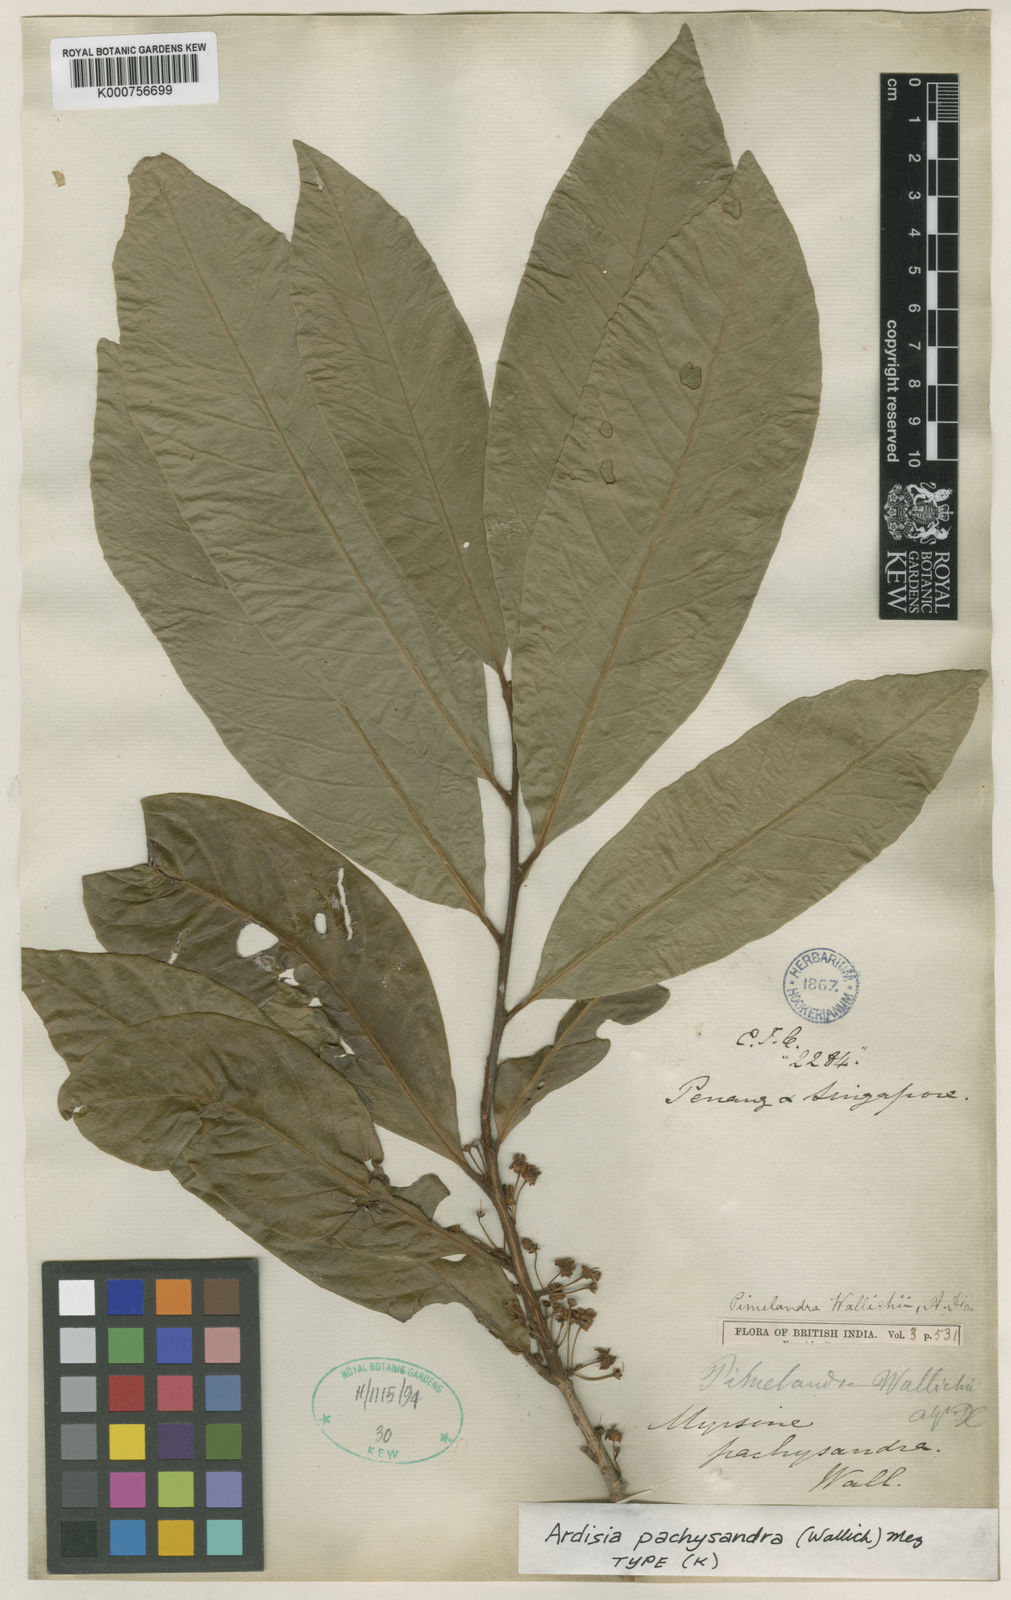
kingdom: Plantae
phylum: Tracheophyta
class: Magnoliopsida
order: Ericales
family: Primulaceae
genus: Ardisia
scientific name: Ardisia pachysandra
